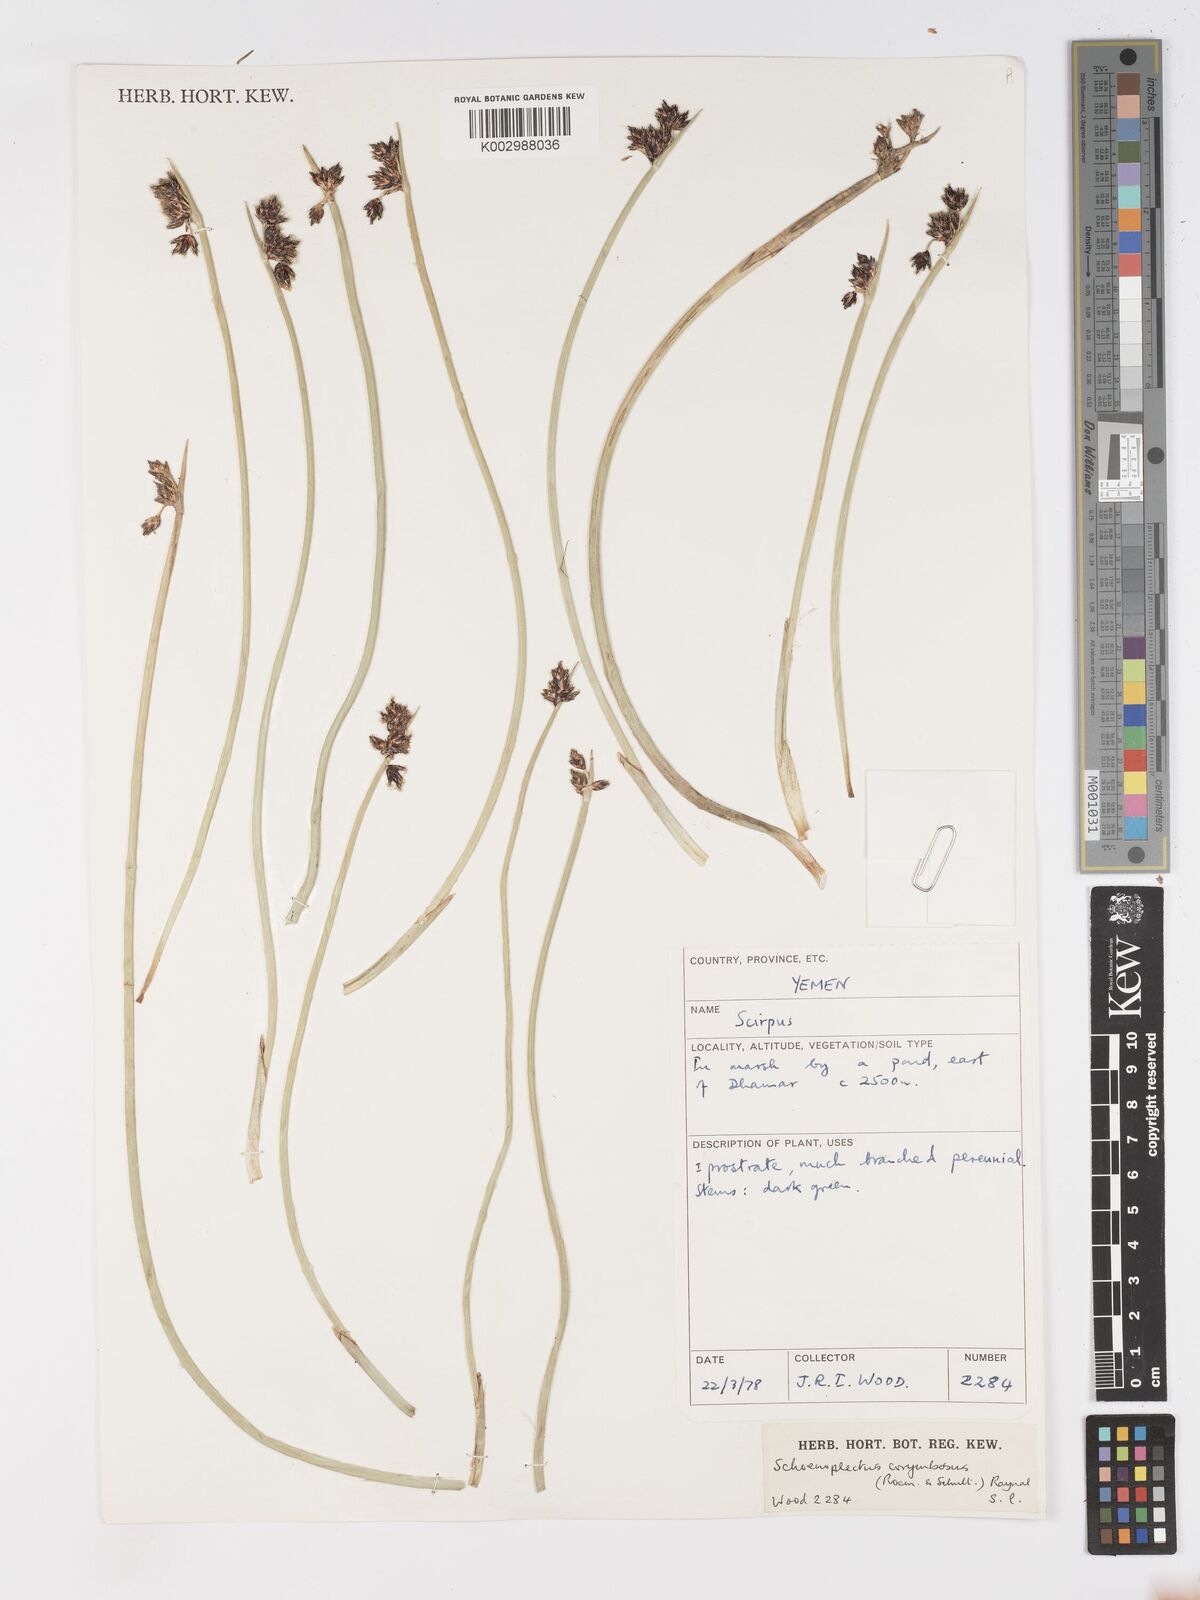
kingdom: Plantae
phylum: Tracheophyta
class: Liliopsida
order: Poales
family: Cyperaceae
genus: Schoenoplectiella
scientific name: Schoenoplectiella corymbosa
